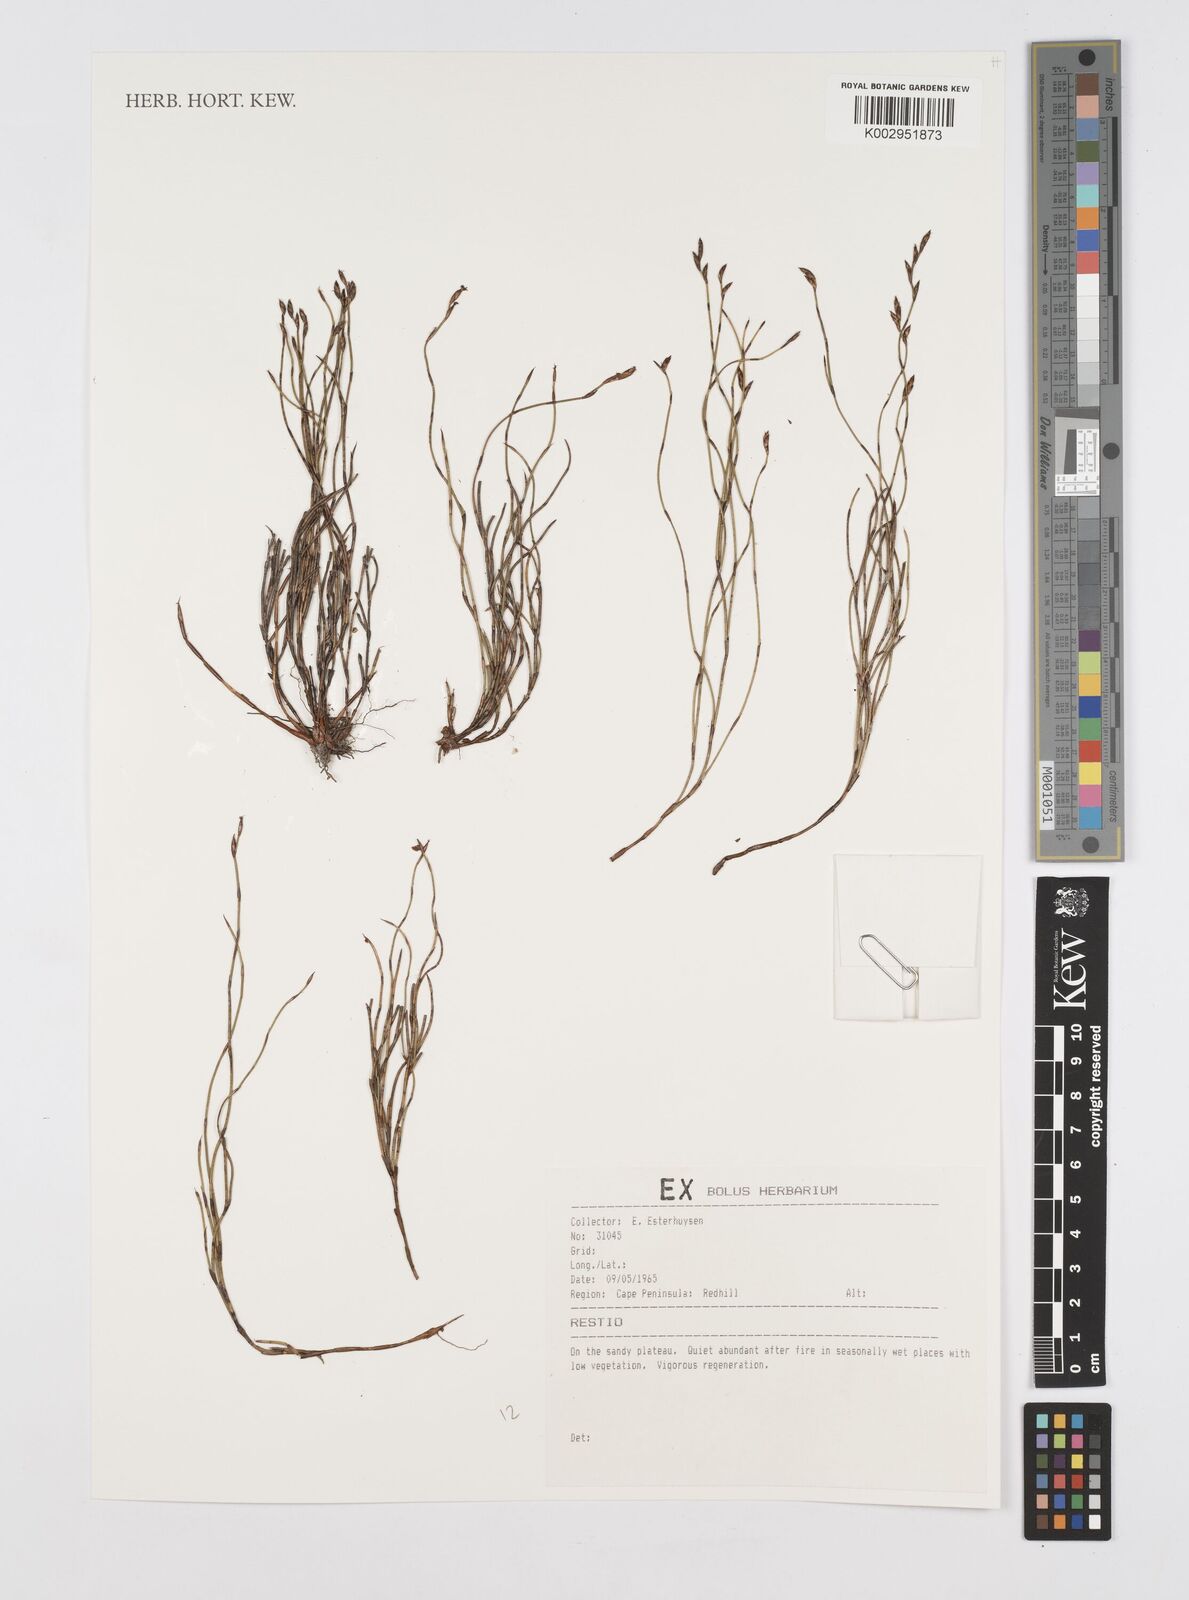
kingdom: Plantae
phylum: Tracheophyta
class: Liliopsida
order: Poales
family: Restionaceae
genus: Restio
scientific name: Restio
